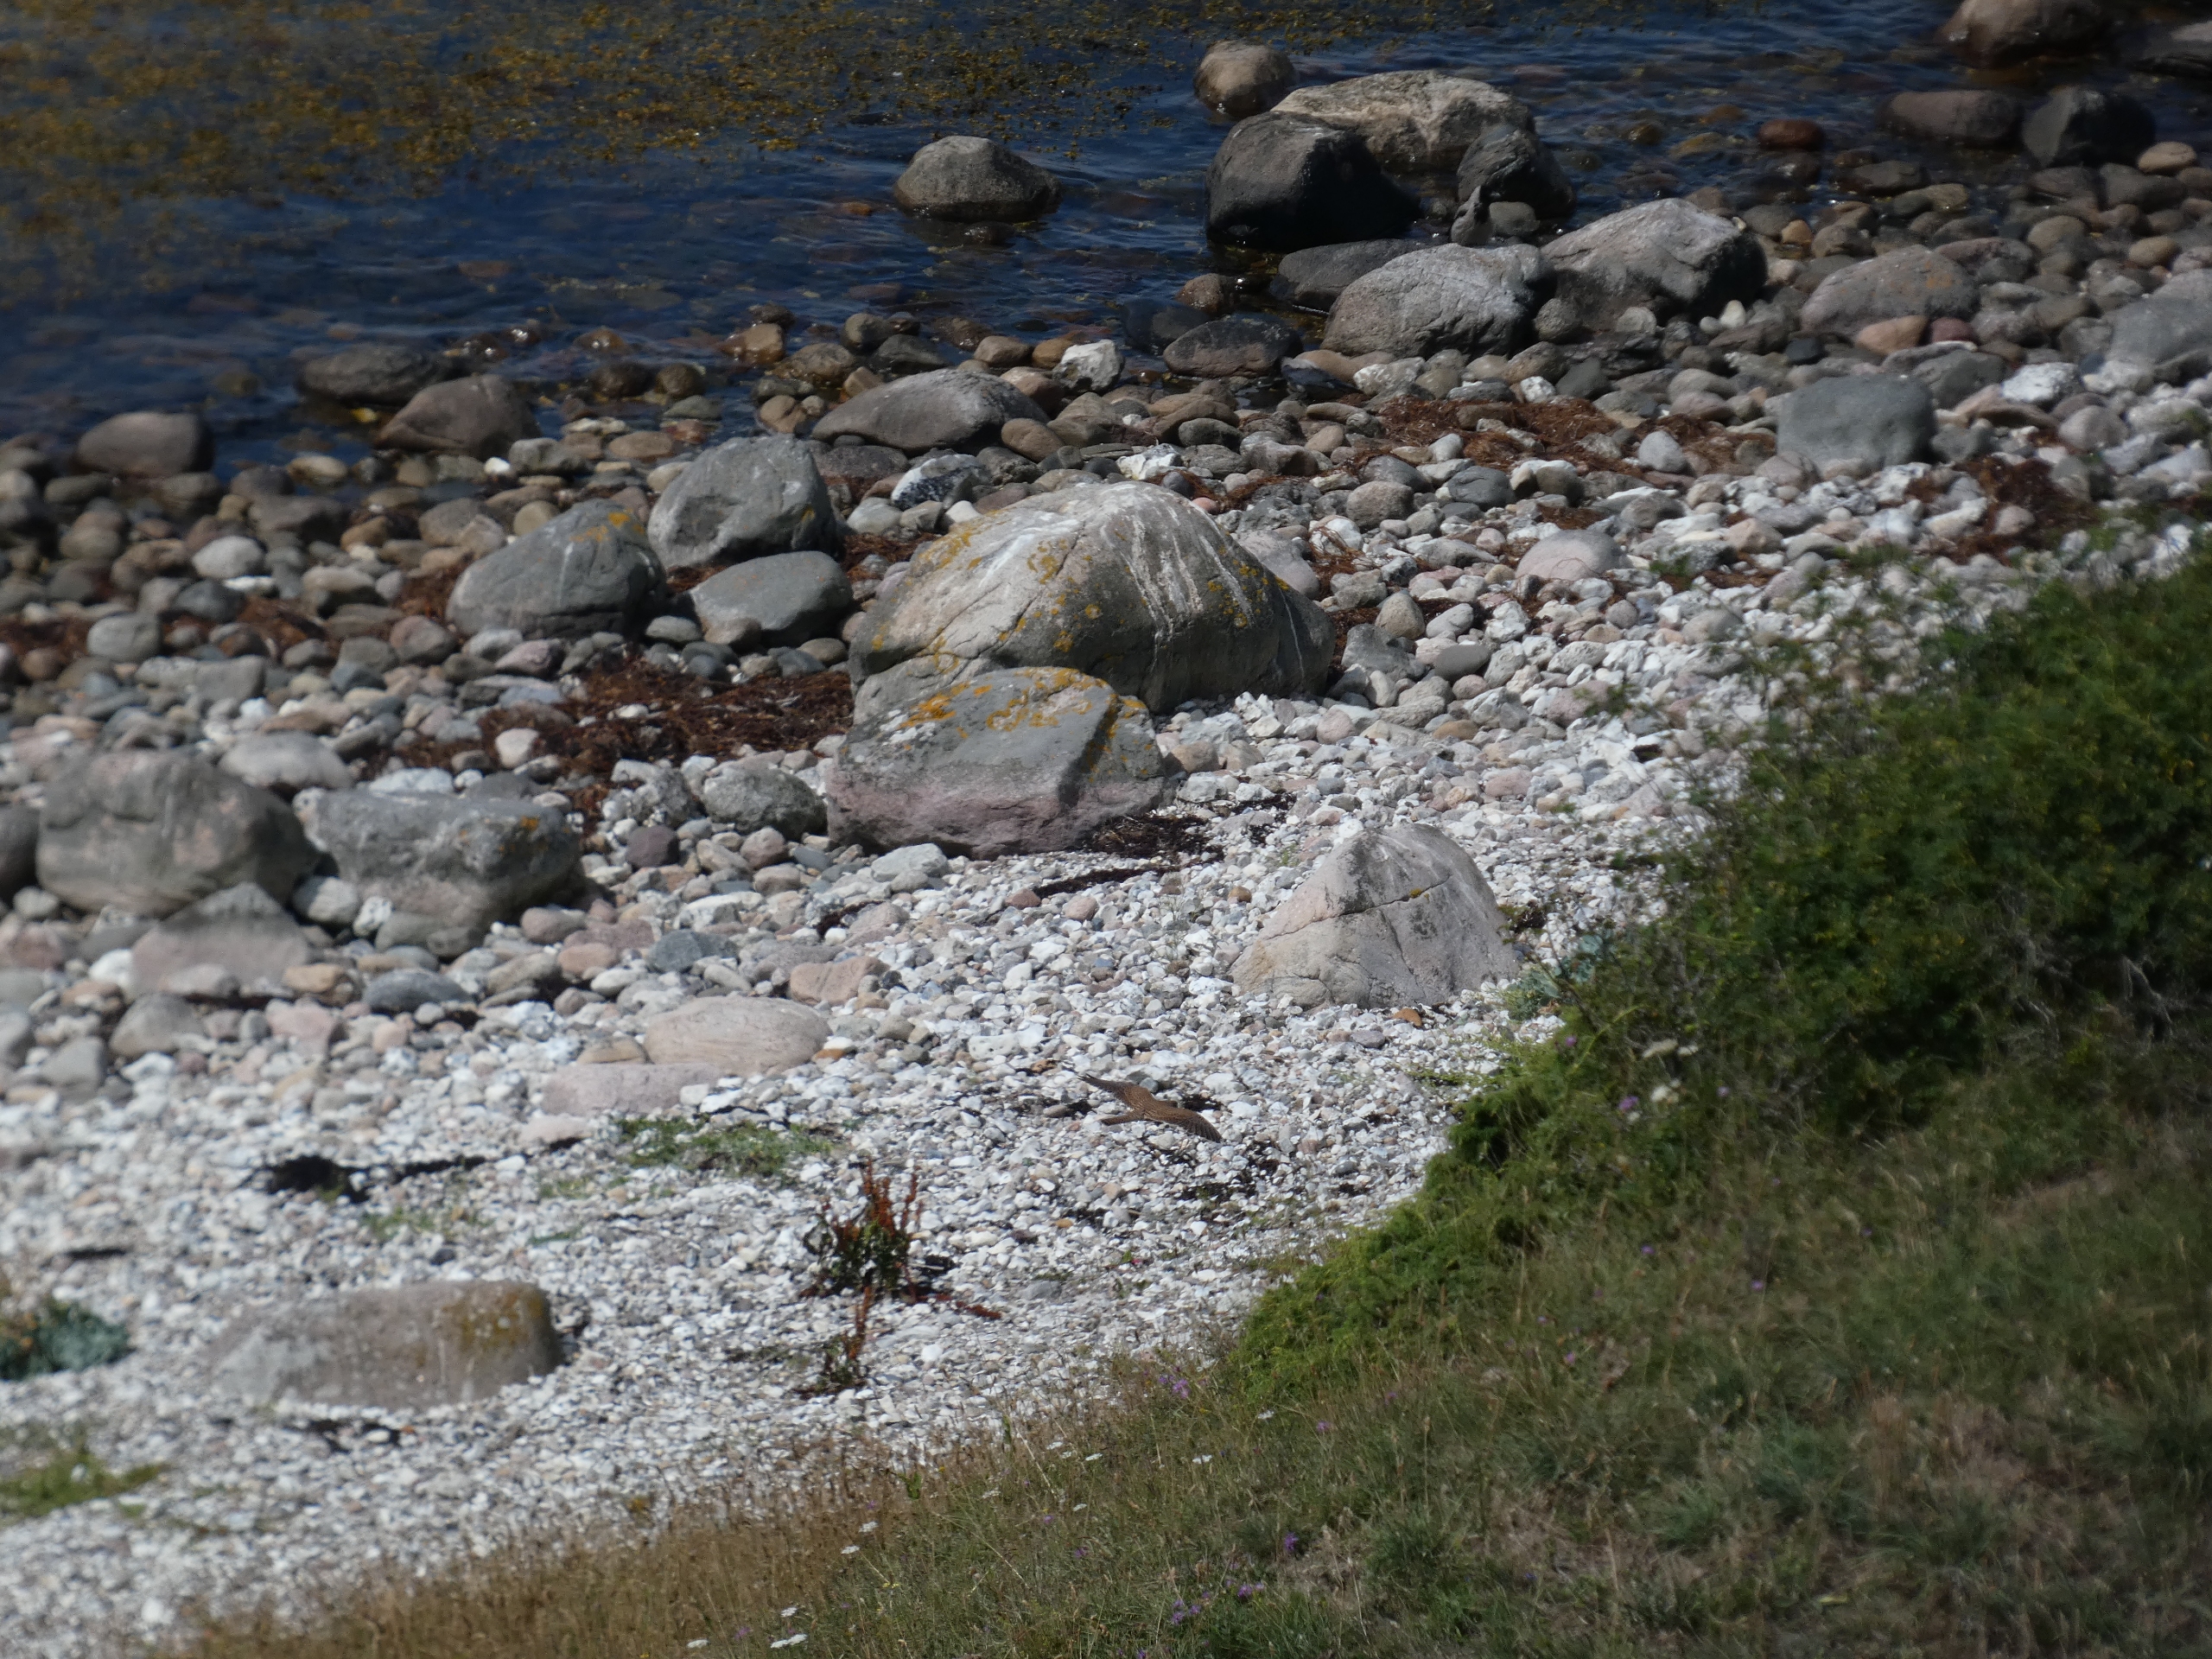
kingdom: Animalia
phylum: Chordata
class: Aves
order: Falconiformes
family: Falconidae
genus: Falco
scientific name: Falco tinnunculus
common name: Tårnfalk
